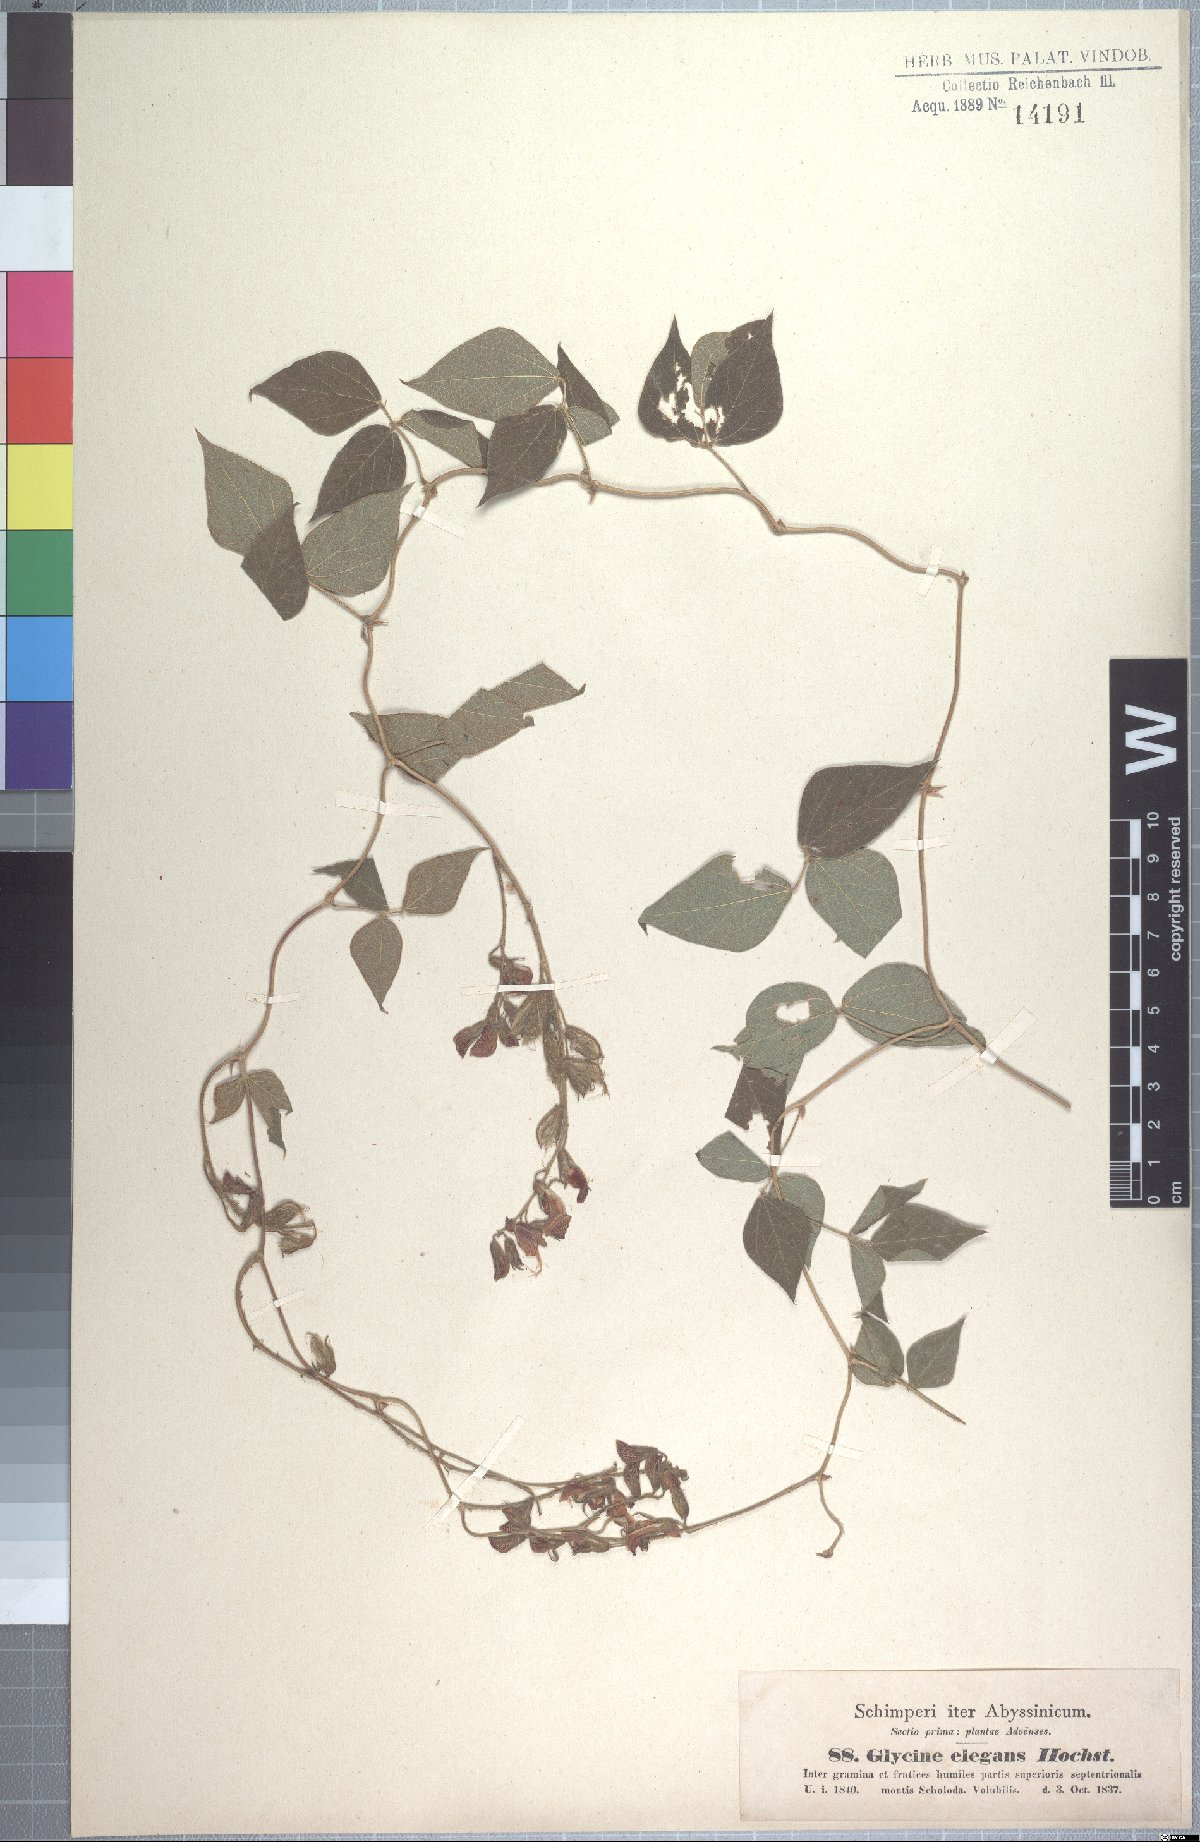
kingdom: Plantae
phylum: Tracheophyta
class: Magnoliopsida
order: Fabales
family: Fabaceae
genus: Rhynchosia
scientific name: Rhynchosia elegans
